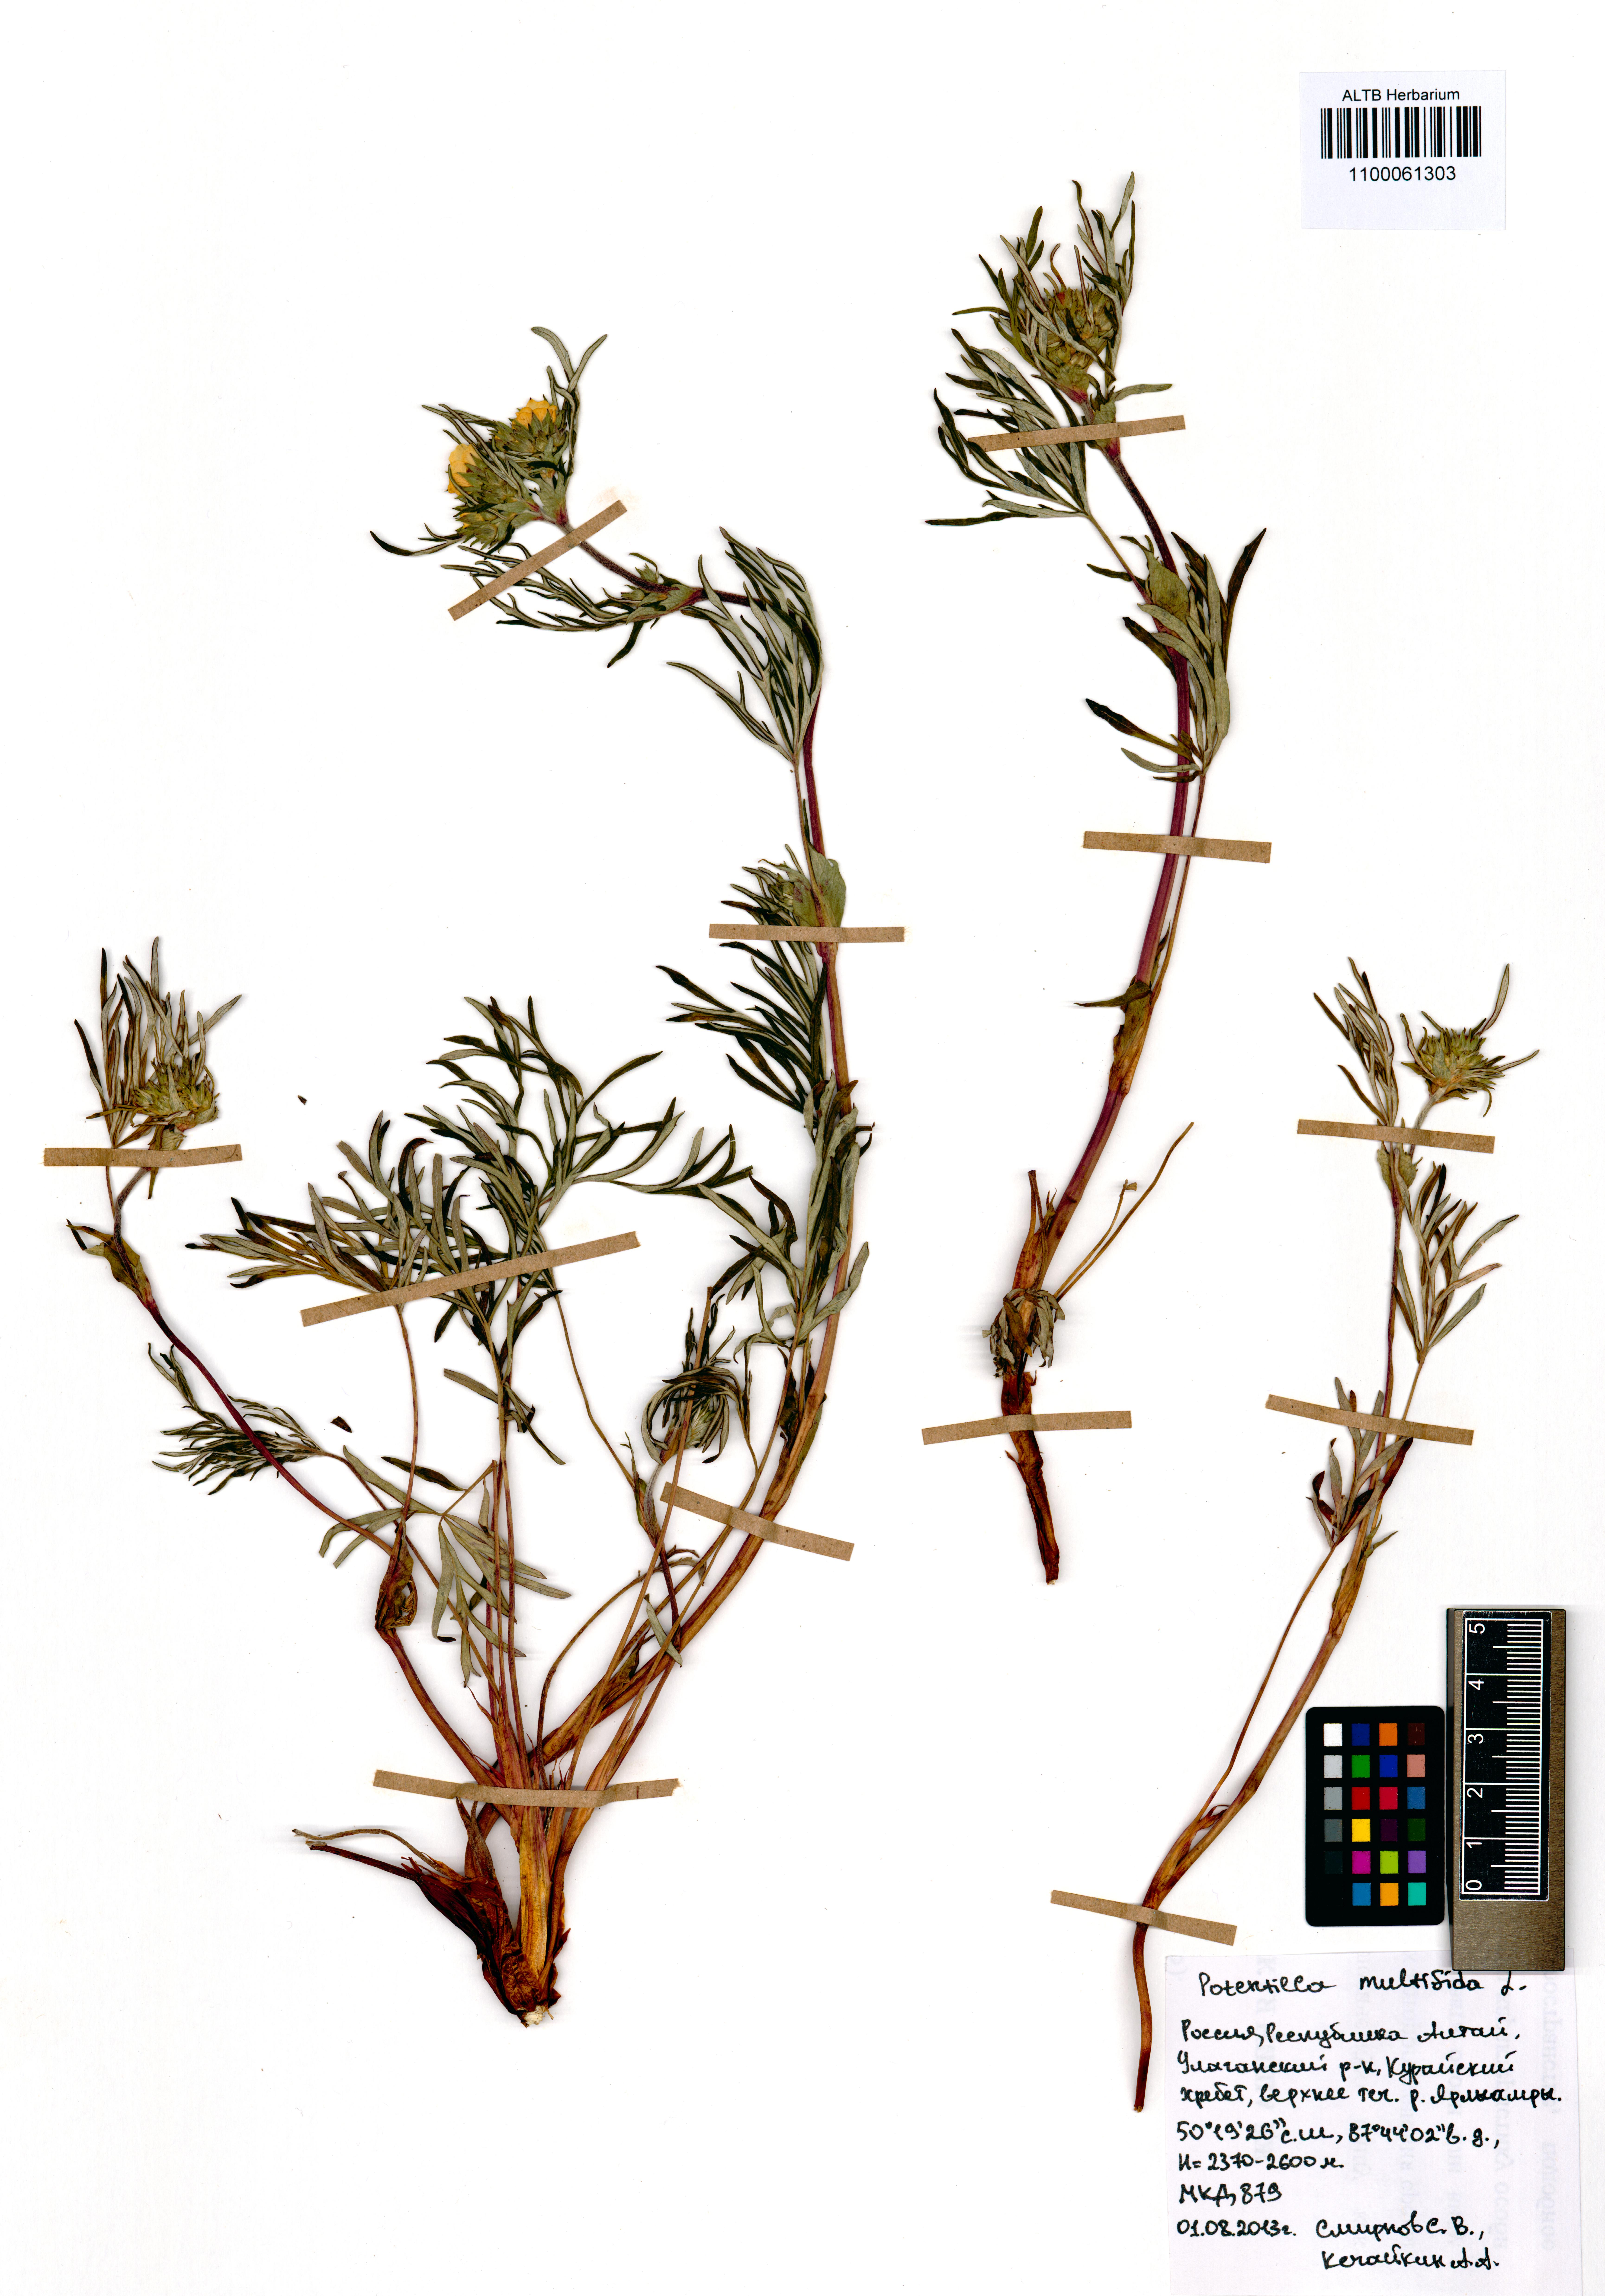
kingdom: Plantae
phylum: Tracheophyta
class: Magnoliopsida
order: Rosales
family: Rosaceae
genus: Potentilla
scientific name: Potentilla multifida
